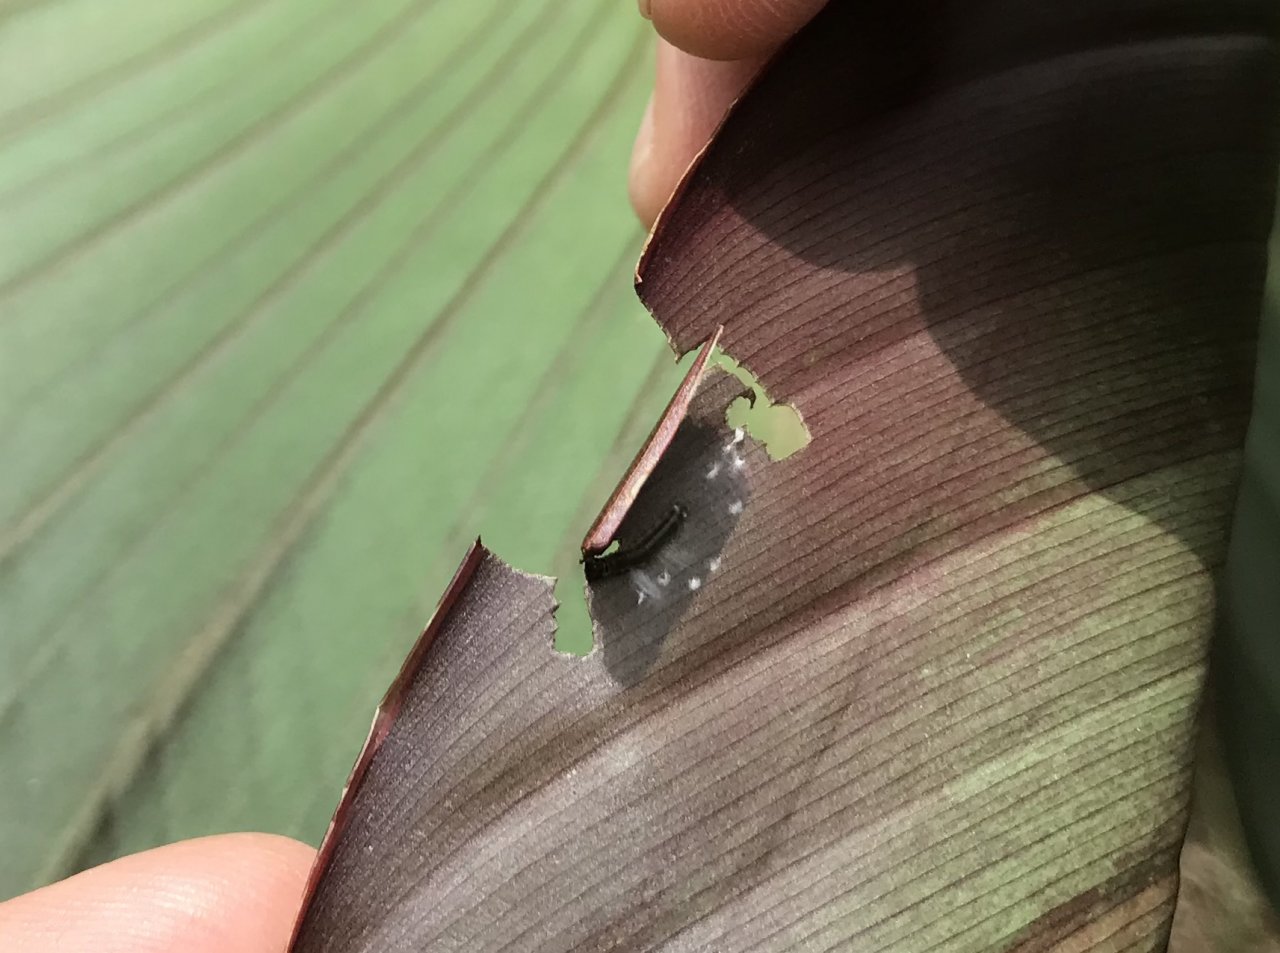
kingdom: Animalia
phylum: Arthropoda
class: Insecta
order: Lepidoptera
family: Hesperiidae
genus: Calpodes
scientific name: Calpodes ethlius
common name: Brazilian Skipper
